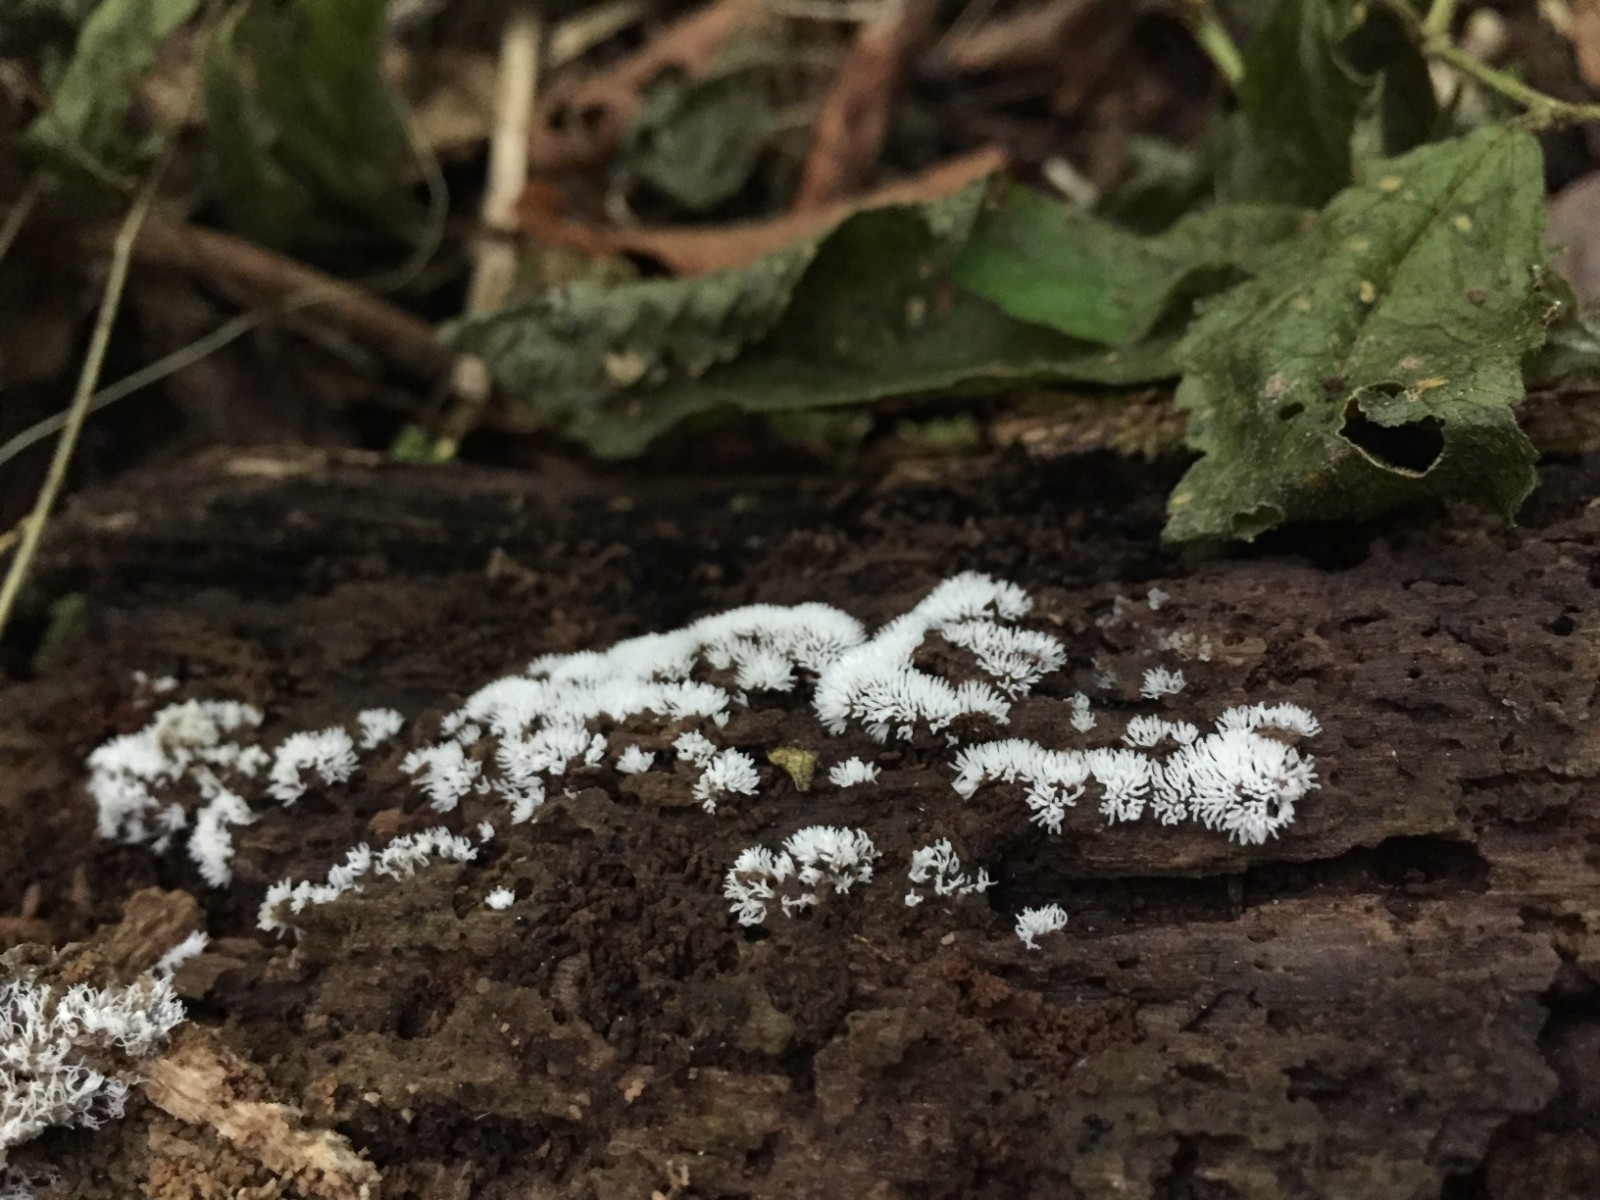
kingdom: Protozoa
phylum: Mycetozoa
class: Protosteliomycetes
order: Ceratiomyxales
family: Ceratiomyxaceae
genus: Ceratiomyxa
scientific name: Ceratiomyxa fruticulosa
